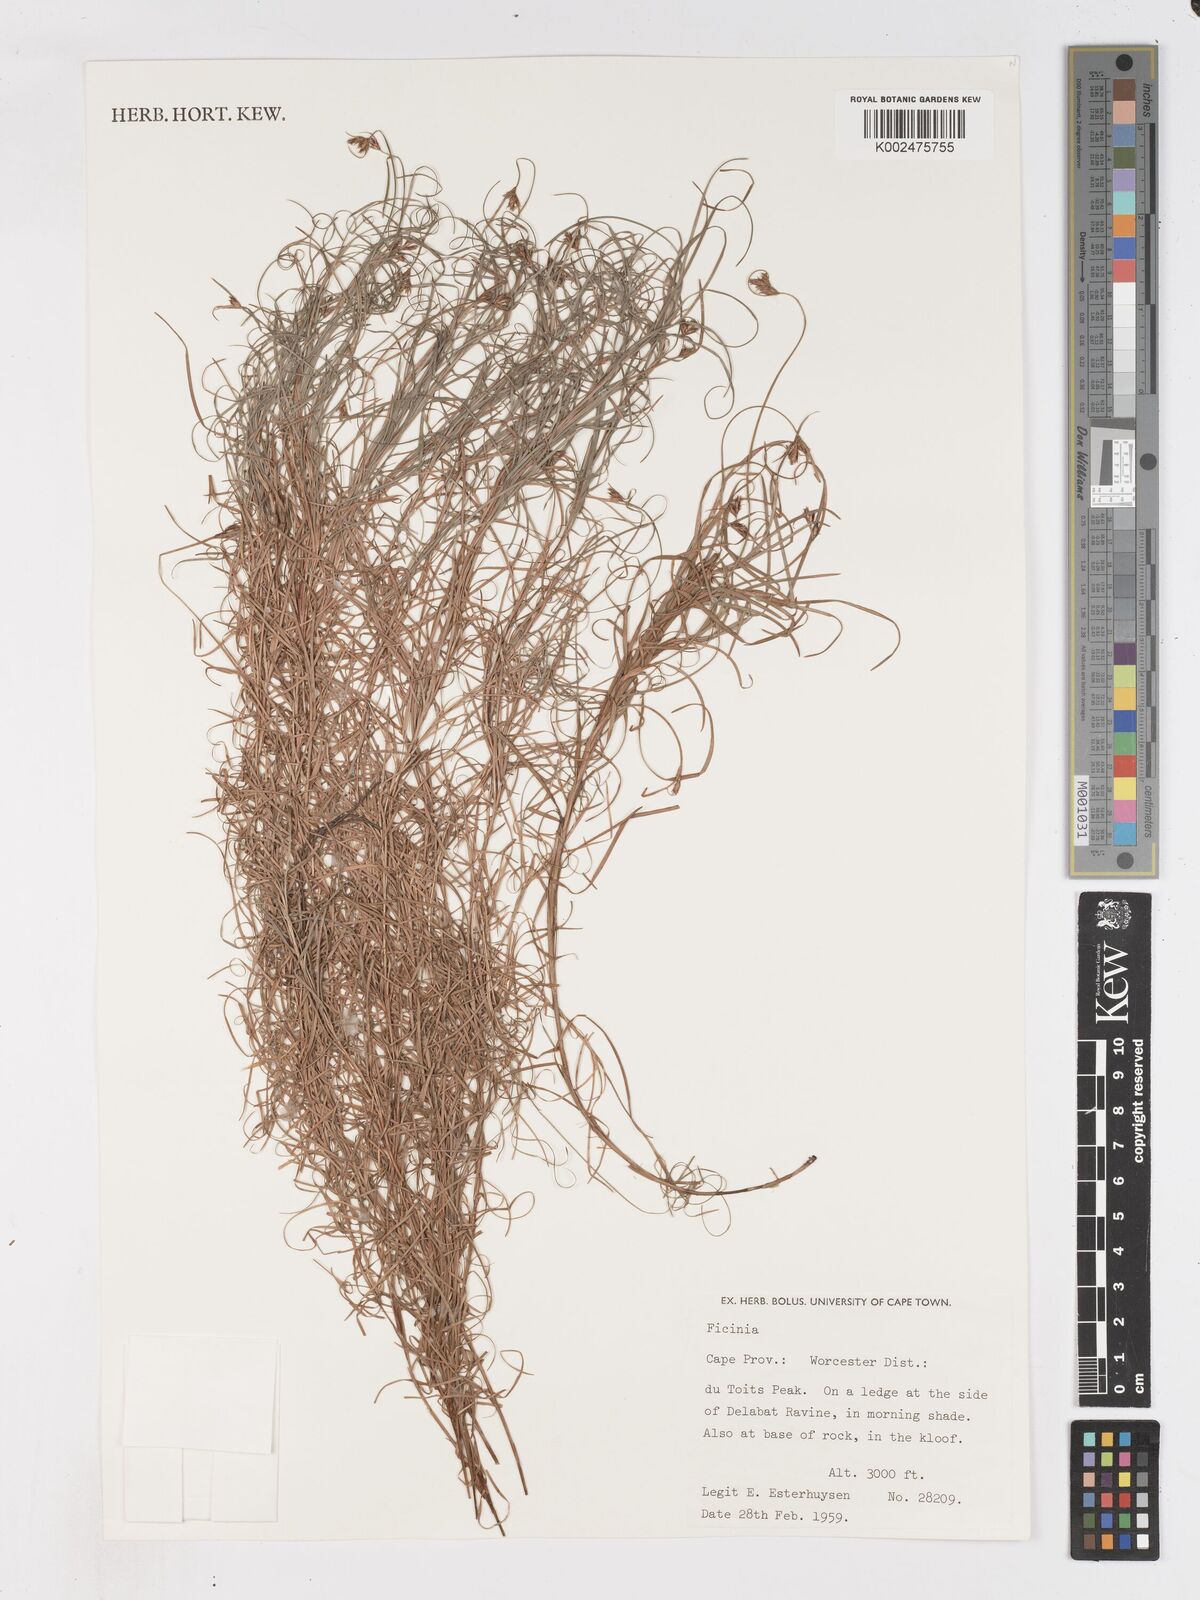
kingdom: Plantae
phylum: Tracheophyta
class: Liliopsida
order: Poales
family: Cyperaceae
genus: Ficinia
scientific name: Ficinia ramosissima
